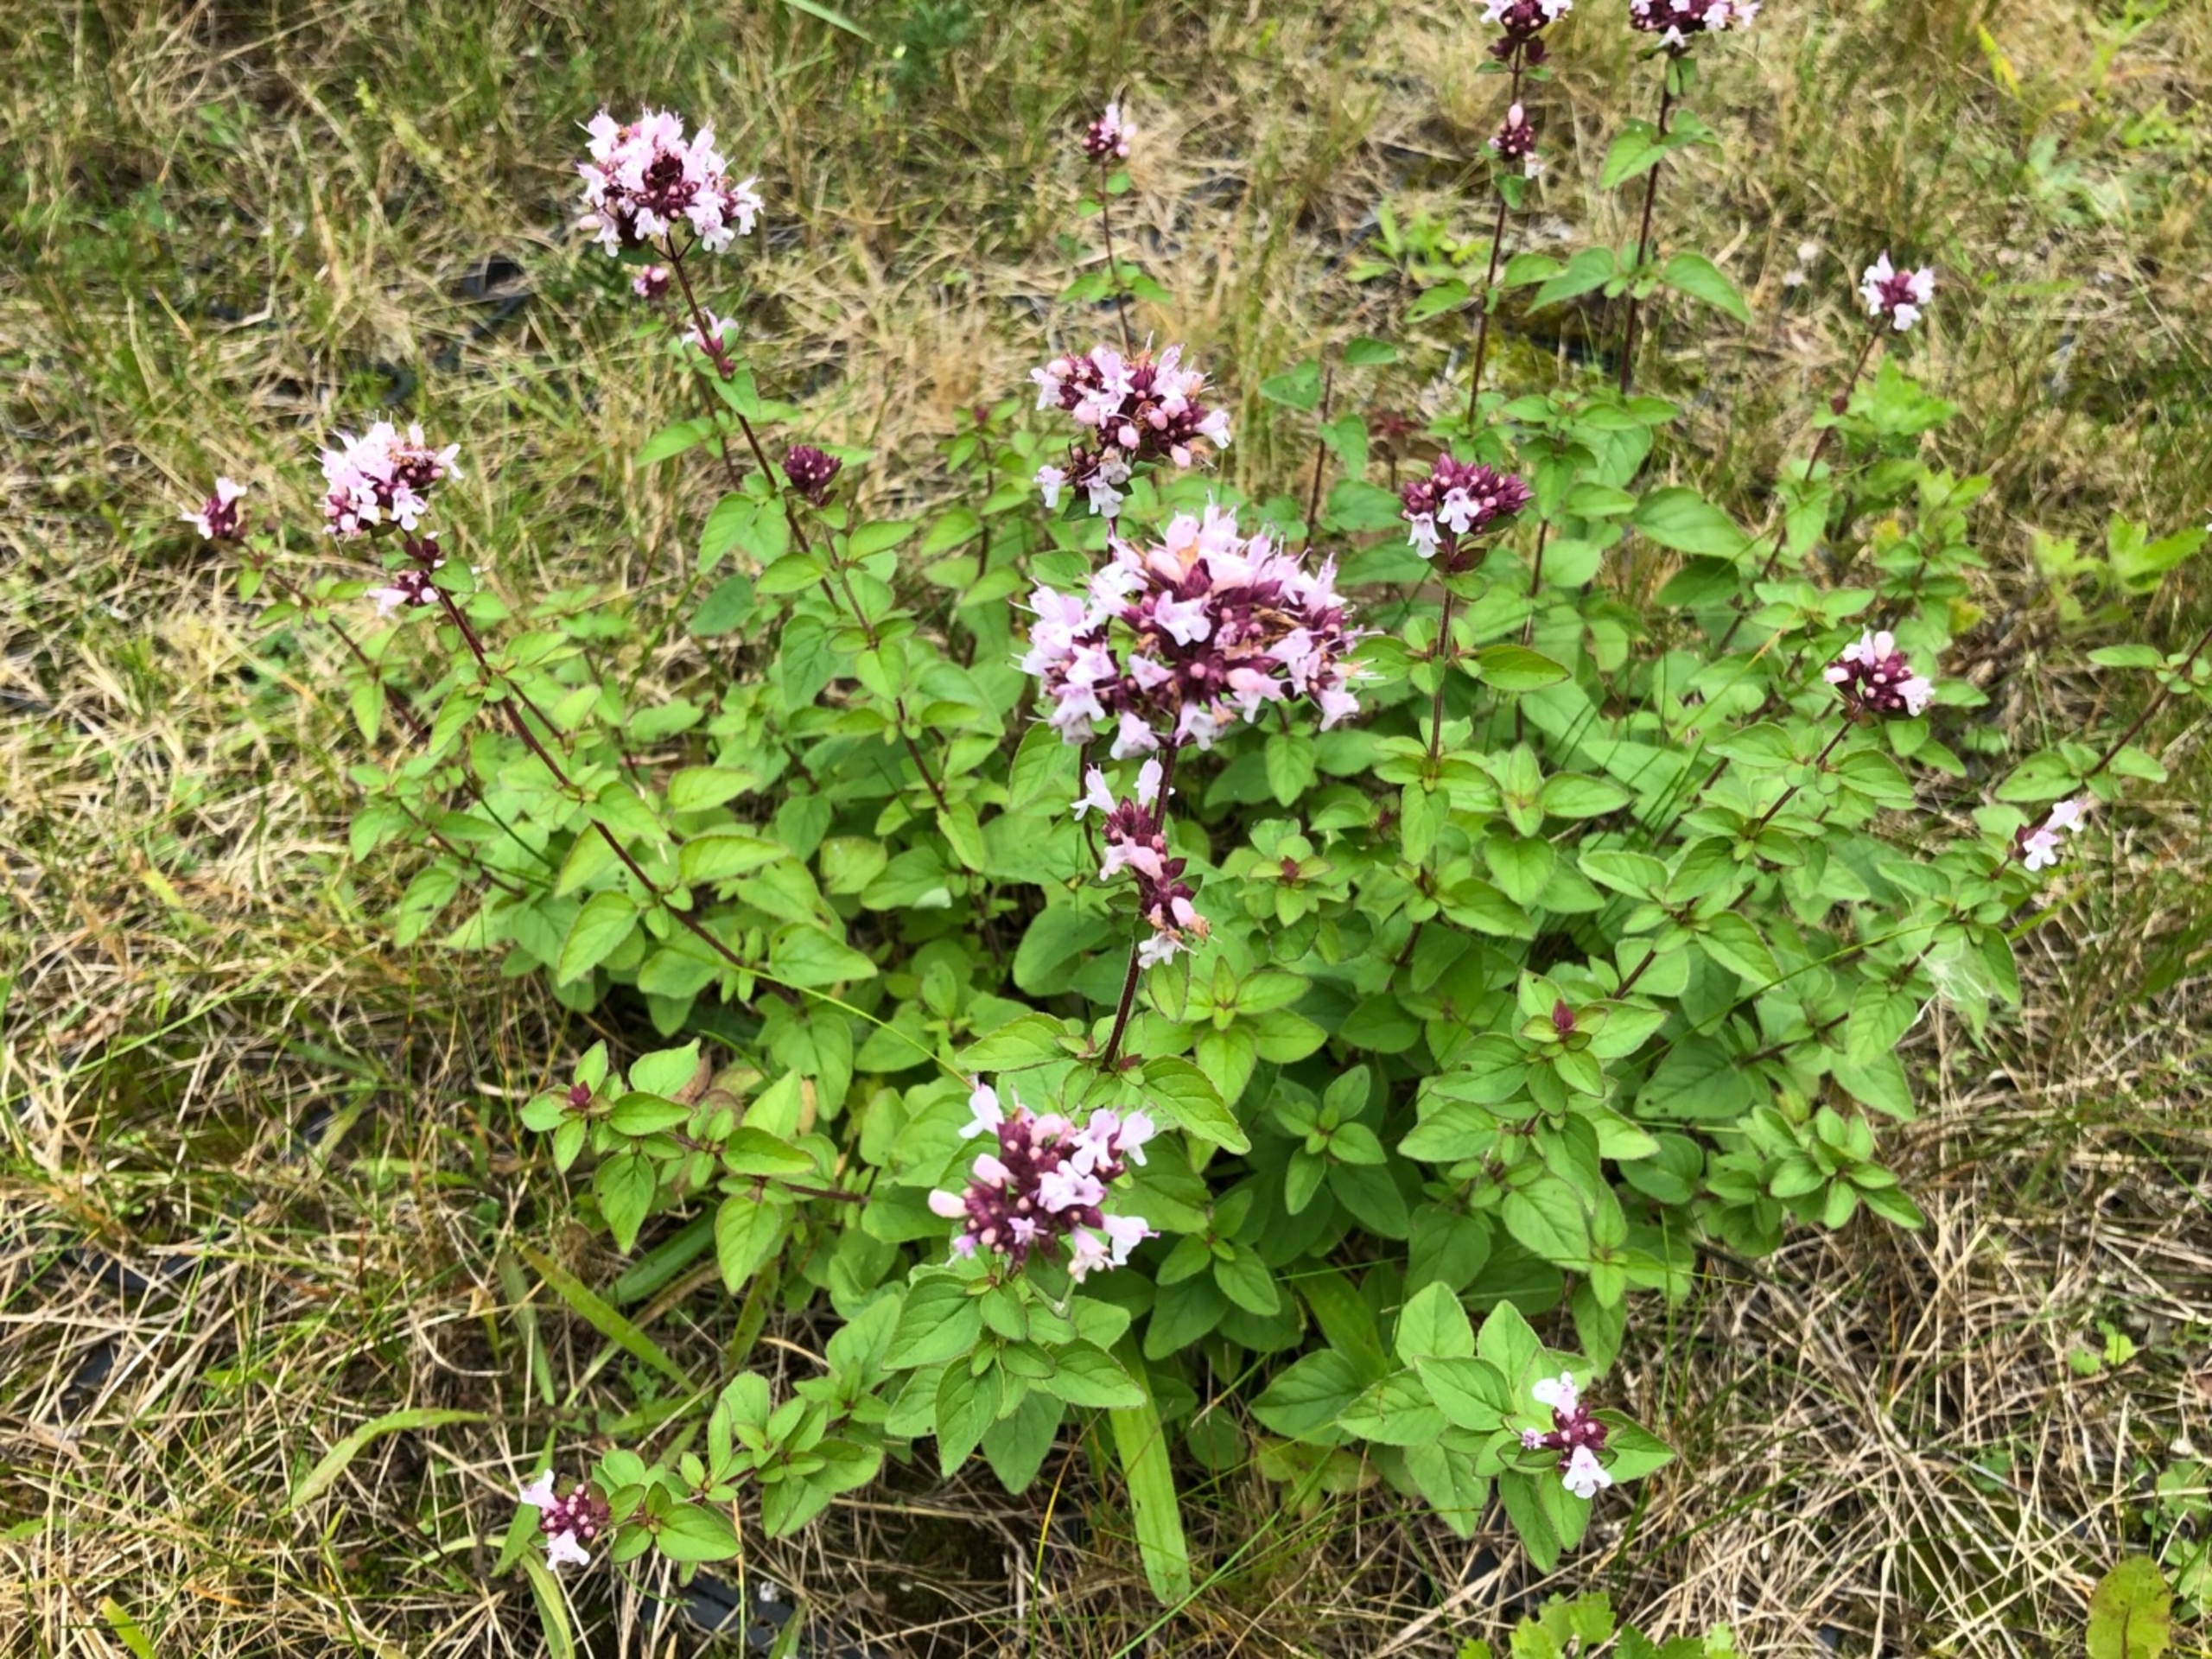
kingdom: Plantae
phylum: Tracheophyta
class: Magnoliopsida
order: Lamiales
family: Lamiaceae
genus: Origanum
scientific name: Origanum vulgare
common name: Merian
